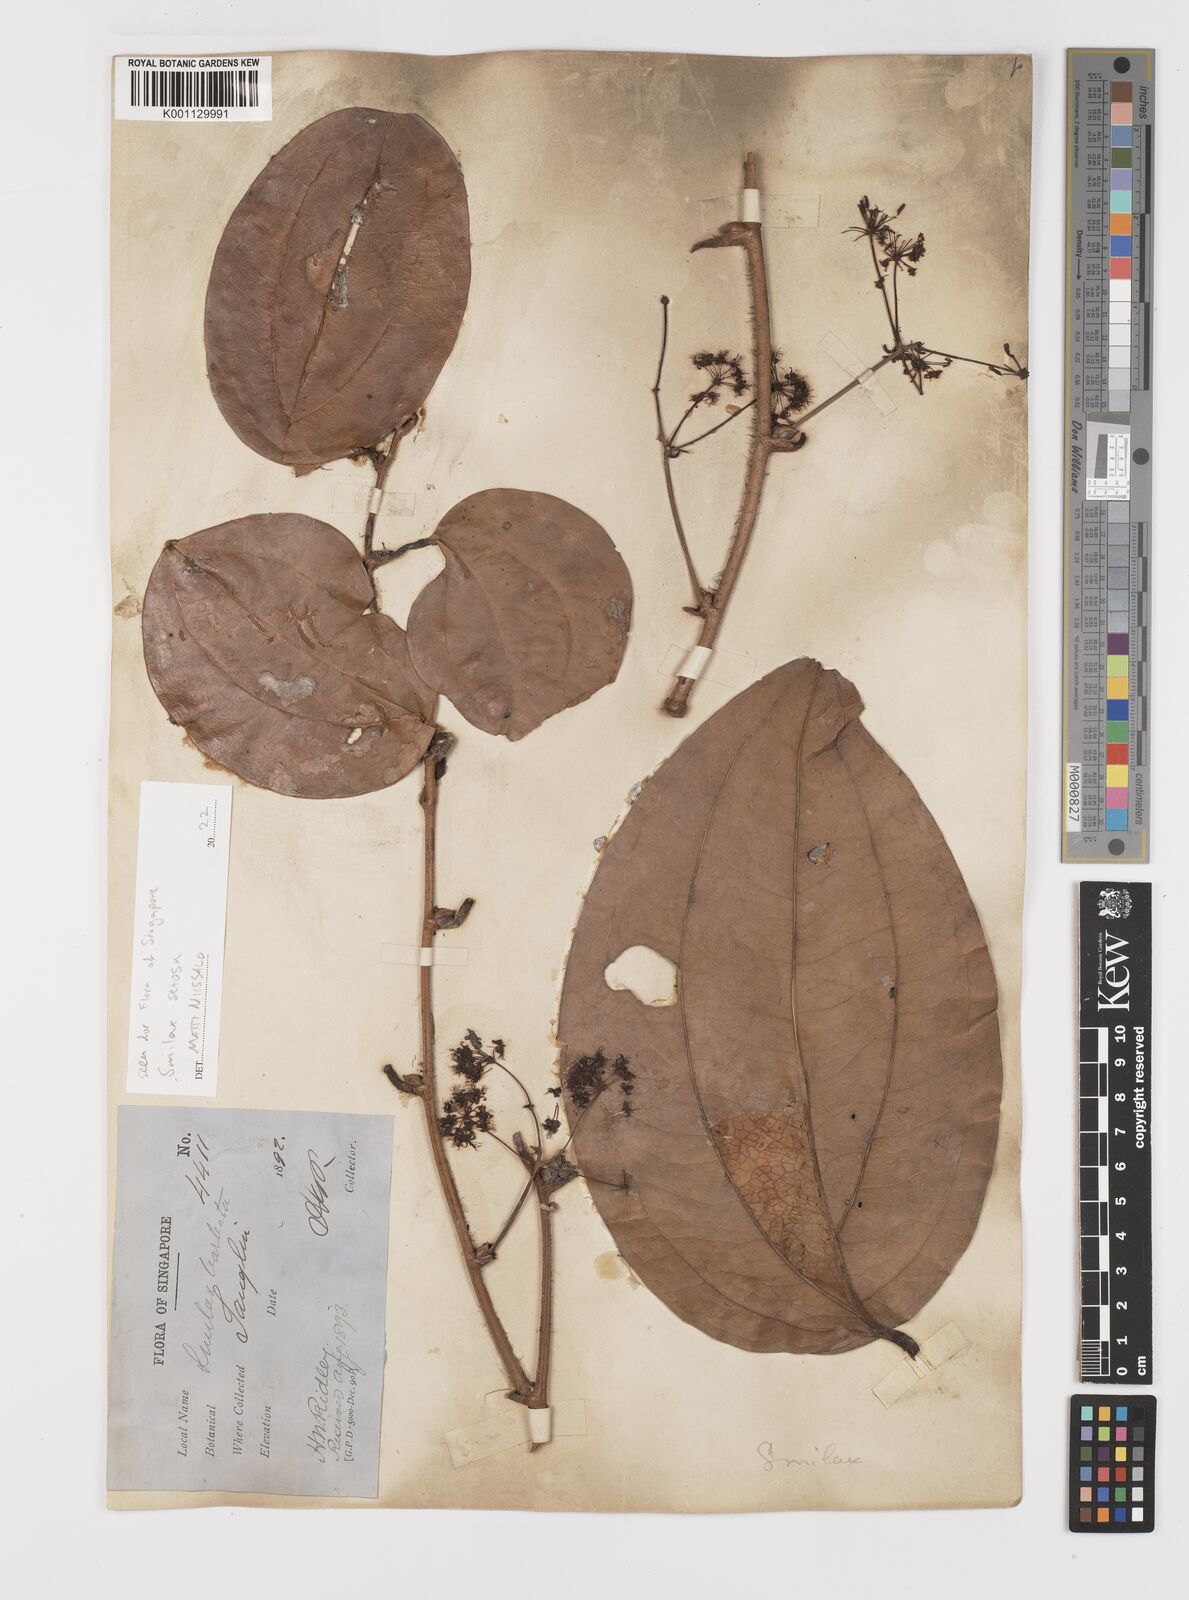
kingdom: Plantae
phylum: Tracheophyta
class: Liliopsida
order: Liliales
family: Smilacaceae
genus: Smilax
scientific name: Smilax setosa
